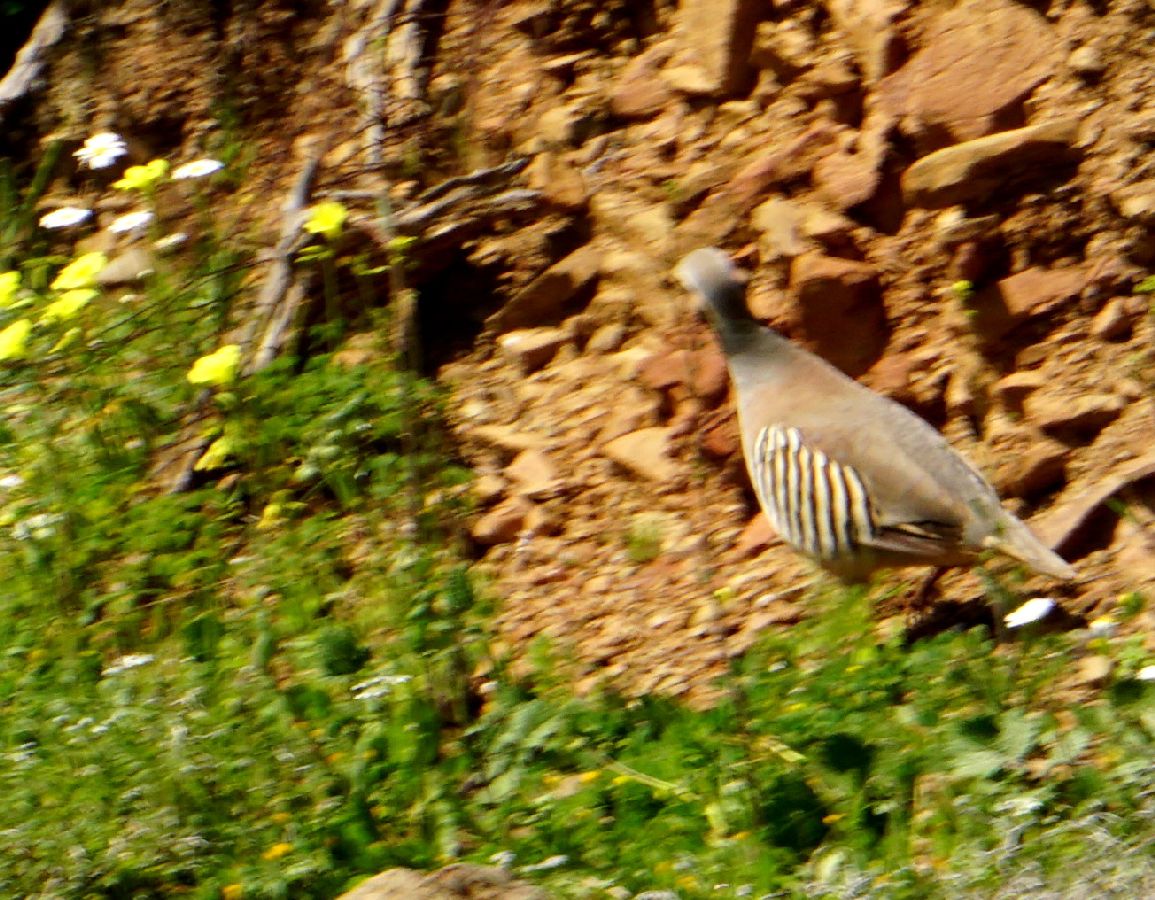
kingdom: Animalia
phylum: Chordata
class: Aves
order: Galliformes
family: Phasianidae
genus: Alectoris
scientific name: Alectoris chukar
